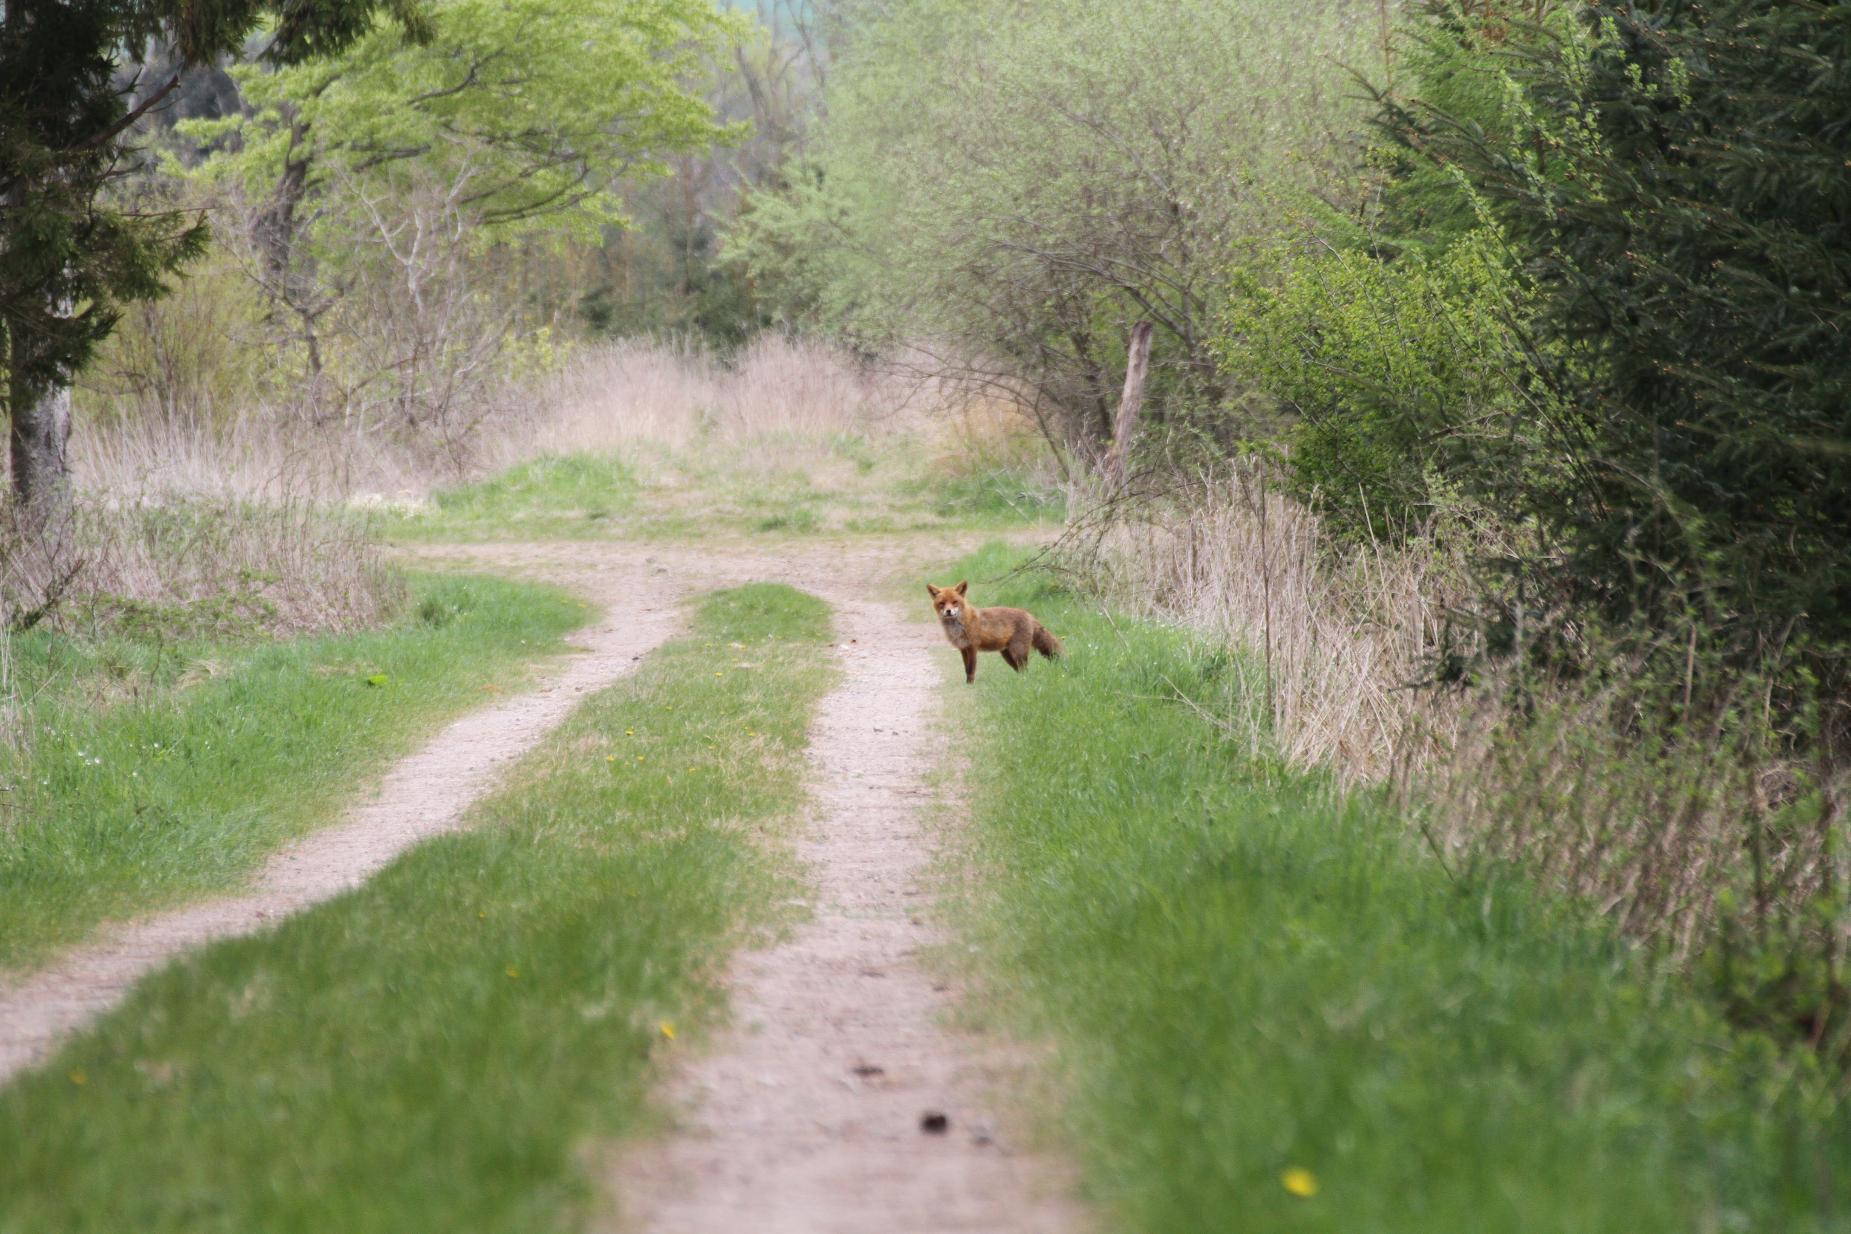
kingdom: Animalia
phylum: Chordata
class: Mammalia
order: Carnivora
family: Canidae
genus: Vulpes
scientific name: Vulpes vulpes
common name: Ræv
